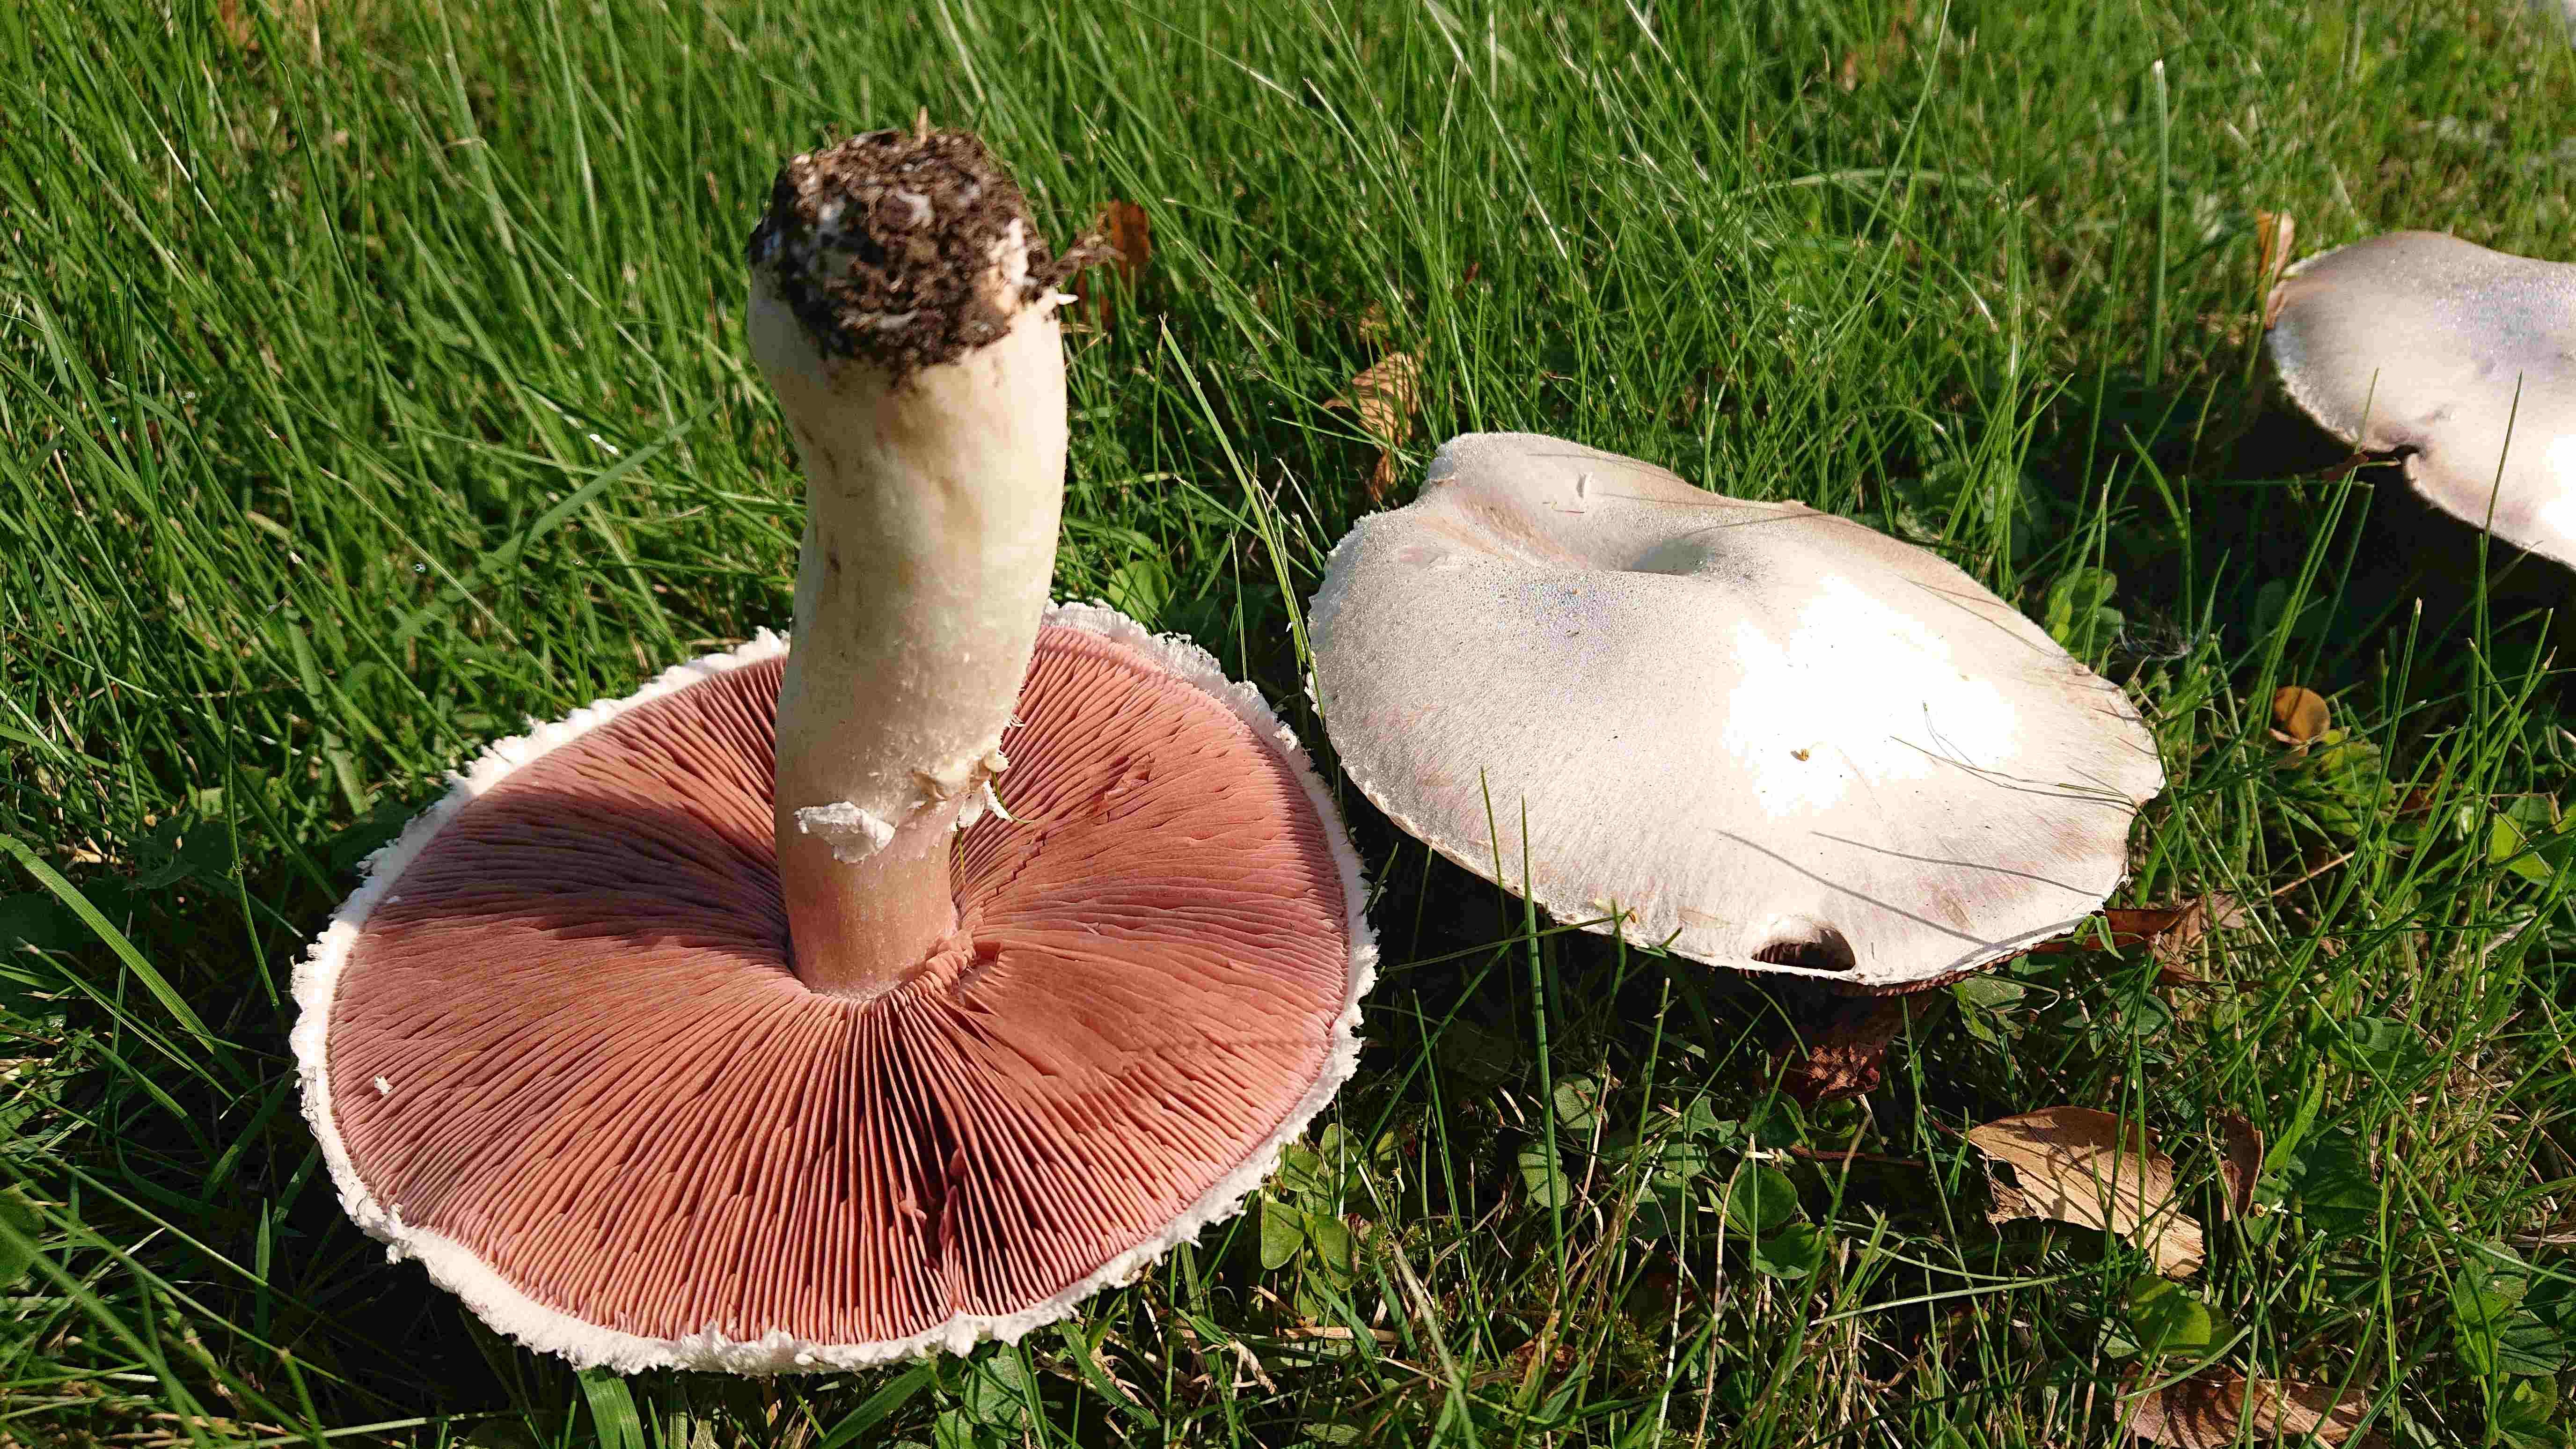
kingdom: Fungi
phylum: Basidiomycota
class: Agaricomycetes
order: Agaricales
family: Agaricaceae
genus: Agaricus
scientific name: Agaricus campestris
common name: mark-champignon
